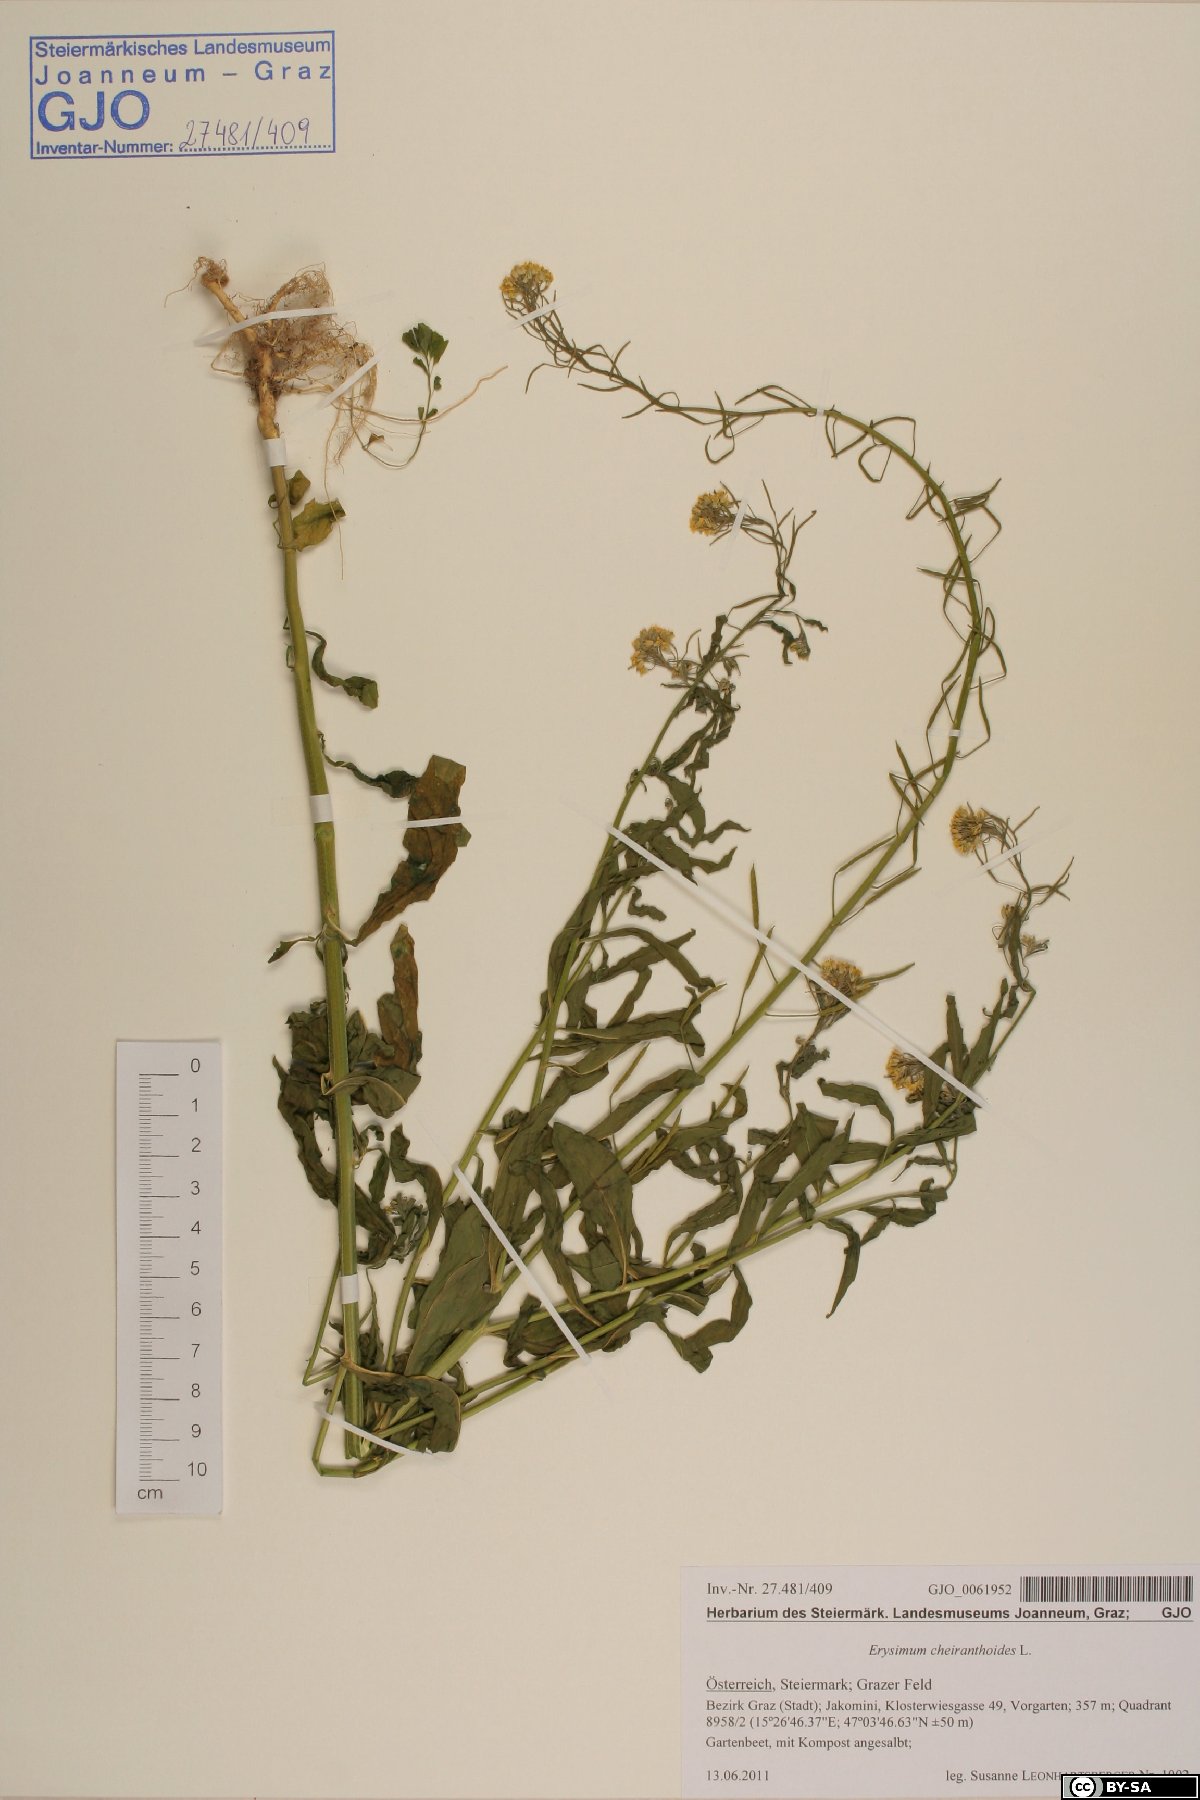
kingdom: Plantae
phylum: Tracheophyta
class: Magnoliopsida
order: Brassicales
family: Brassicaceae
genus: Erysimum
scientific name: Erysimum cheiranthoides
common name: Treacle mustard
